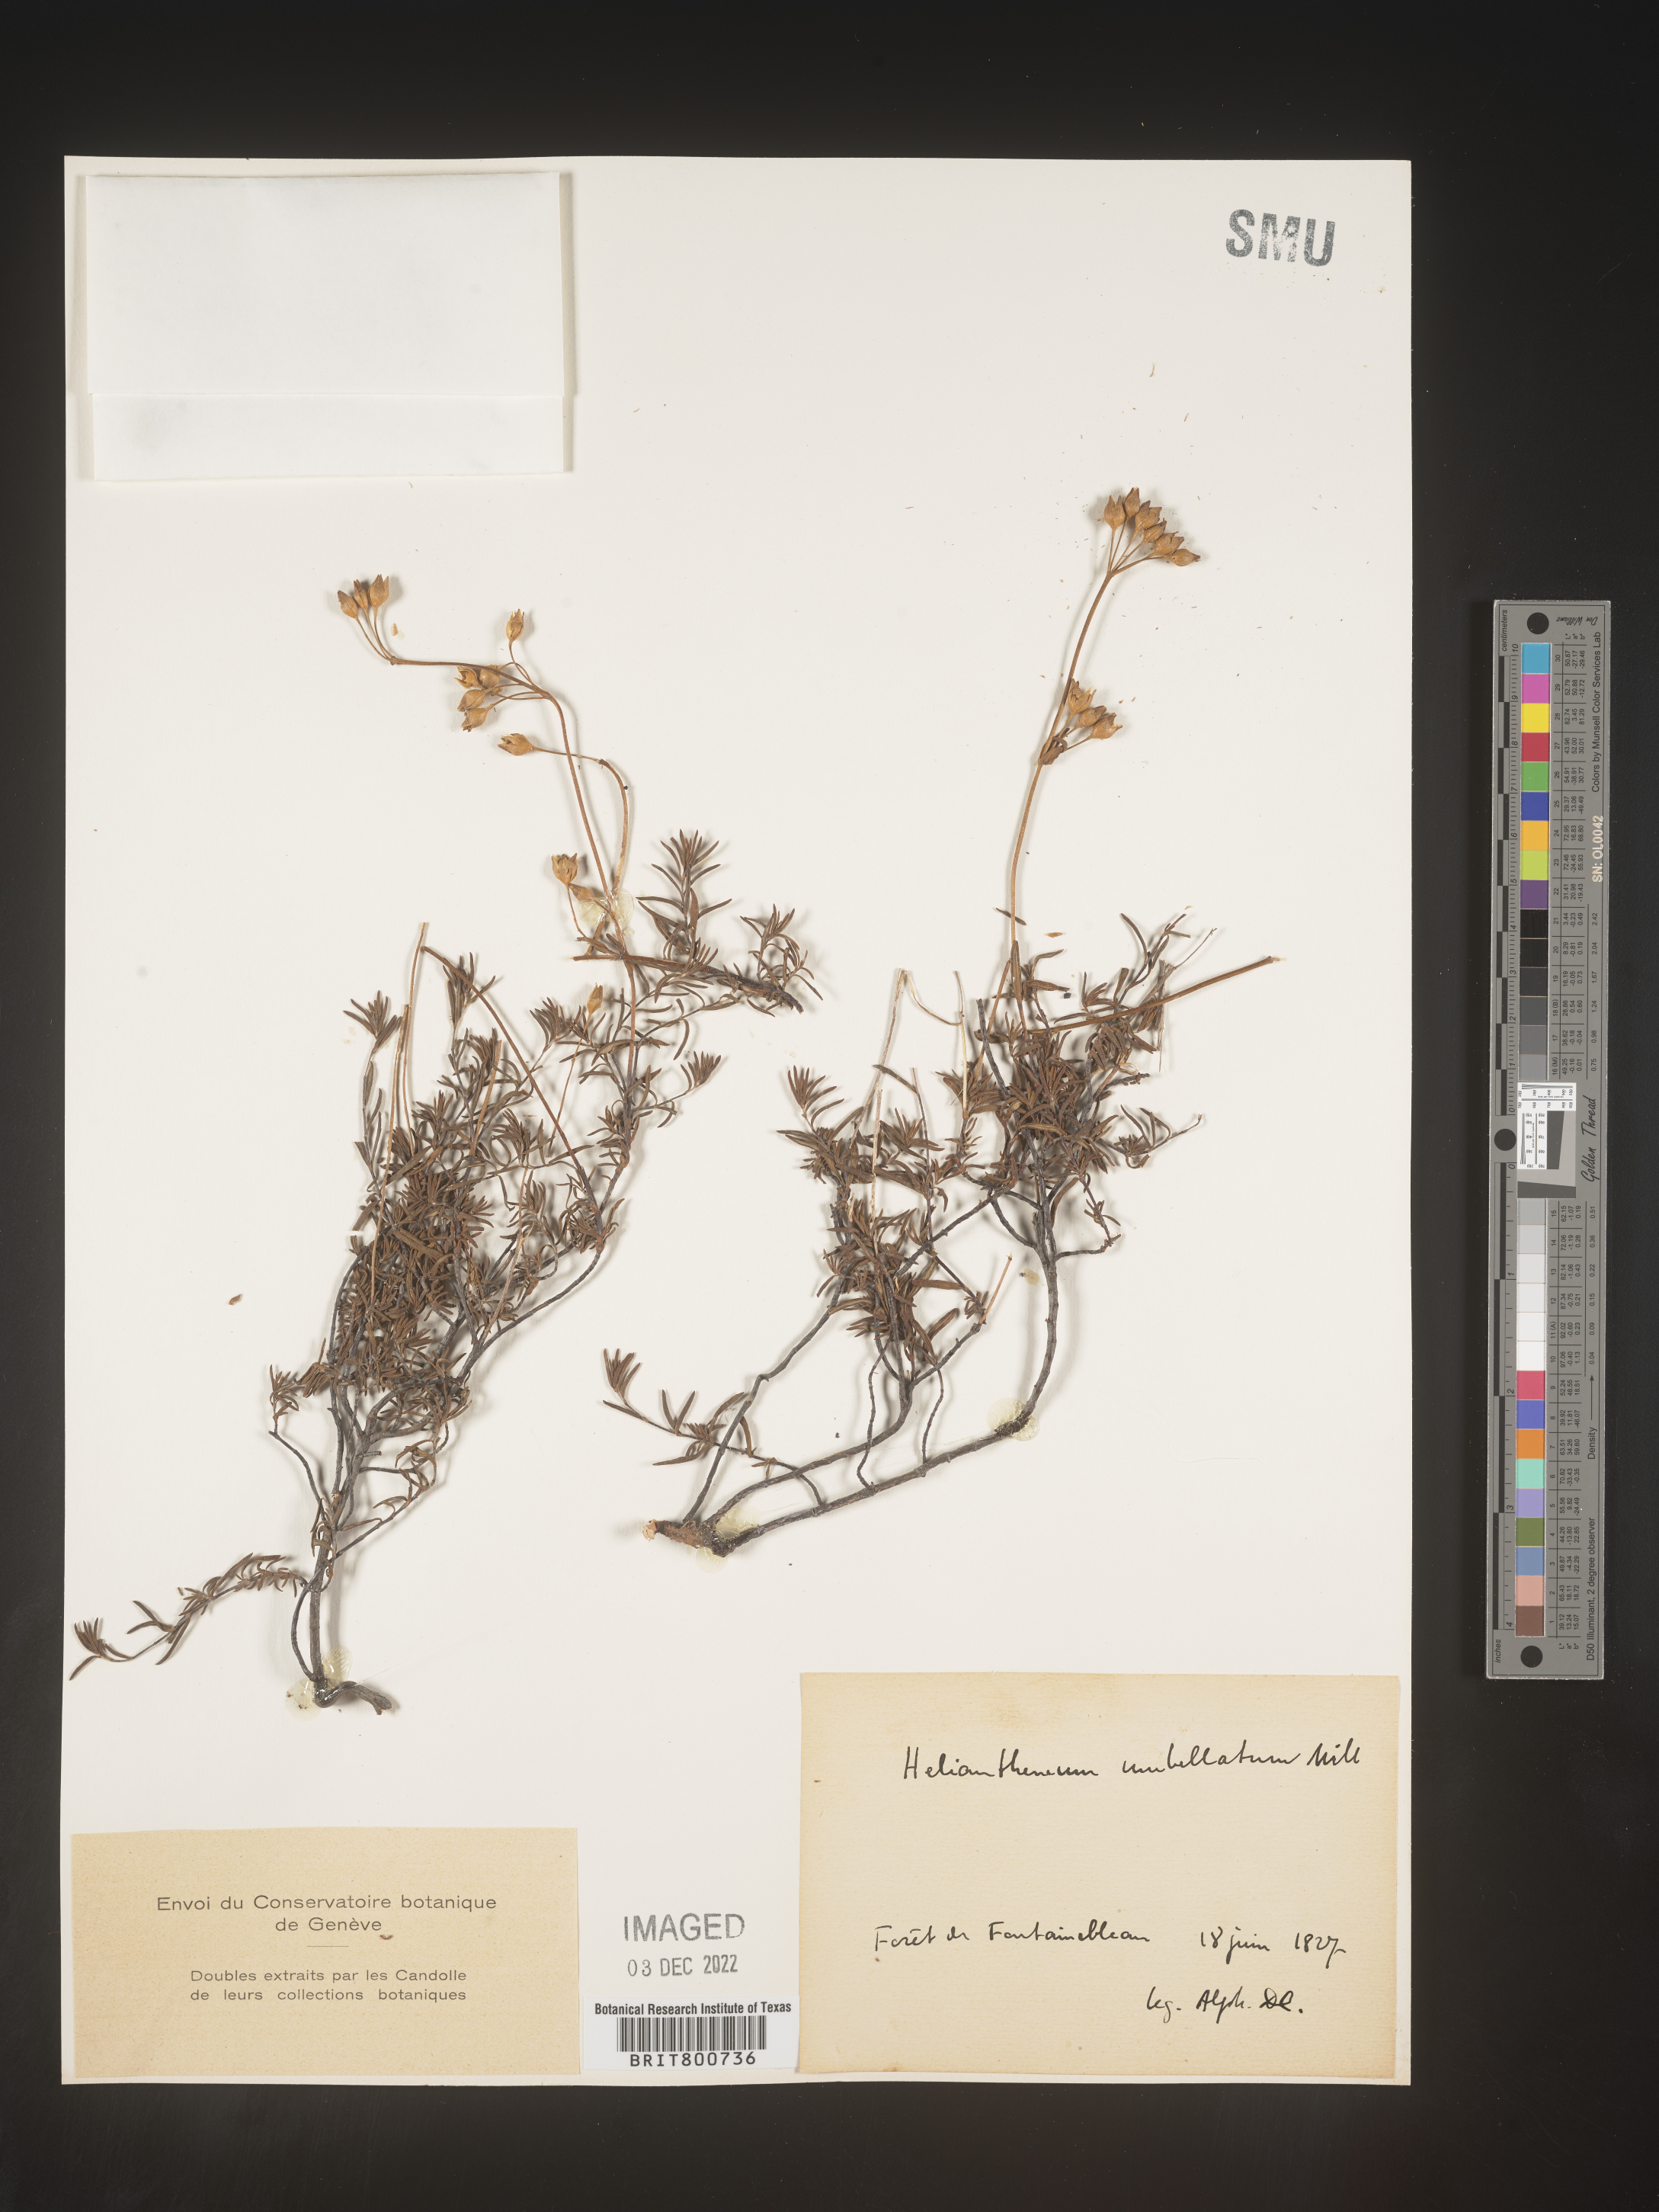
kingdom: Plantae
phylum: Tracheophyta
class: Magnoliopsida
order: Malvales
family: Cistaceae
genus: Helianthemum
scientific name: Helianthemum
